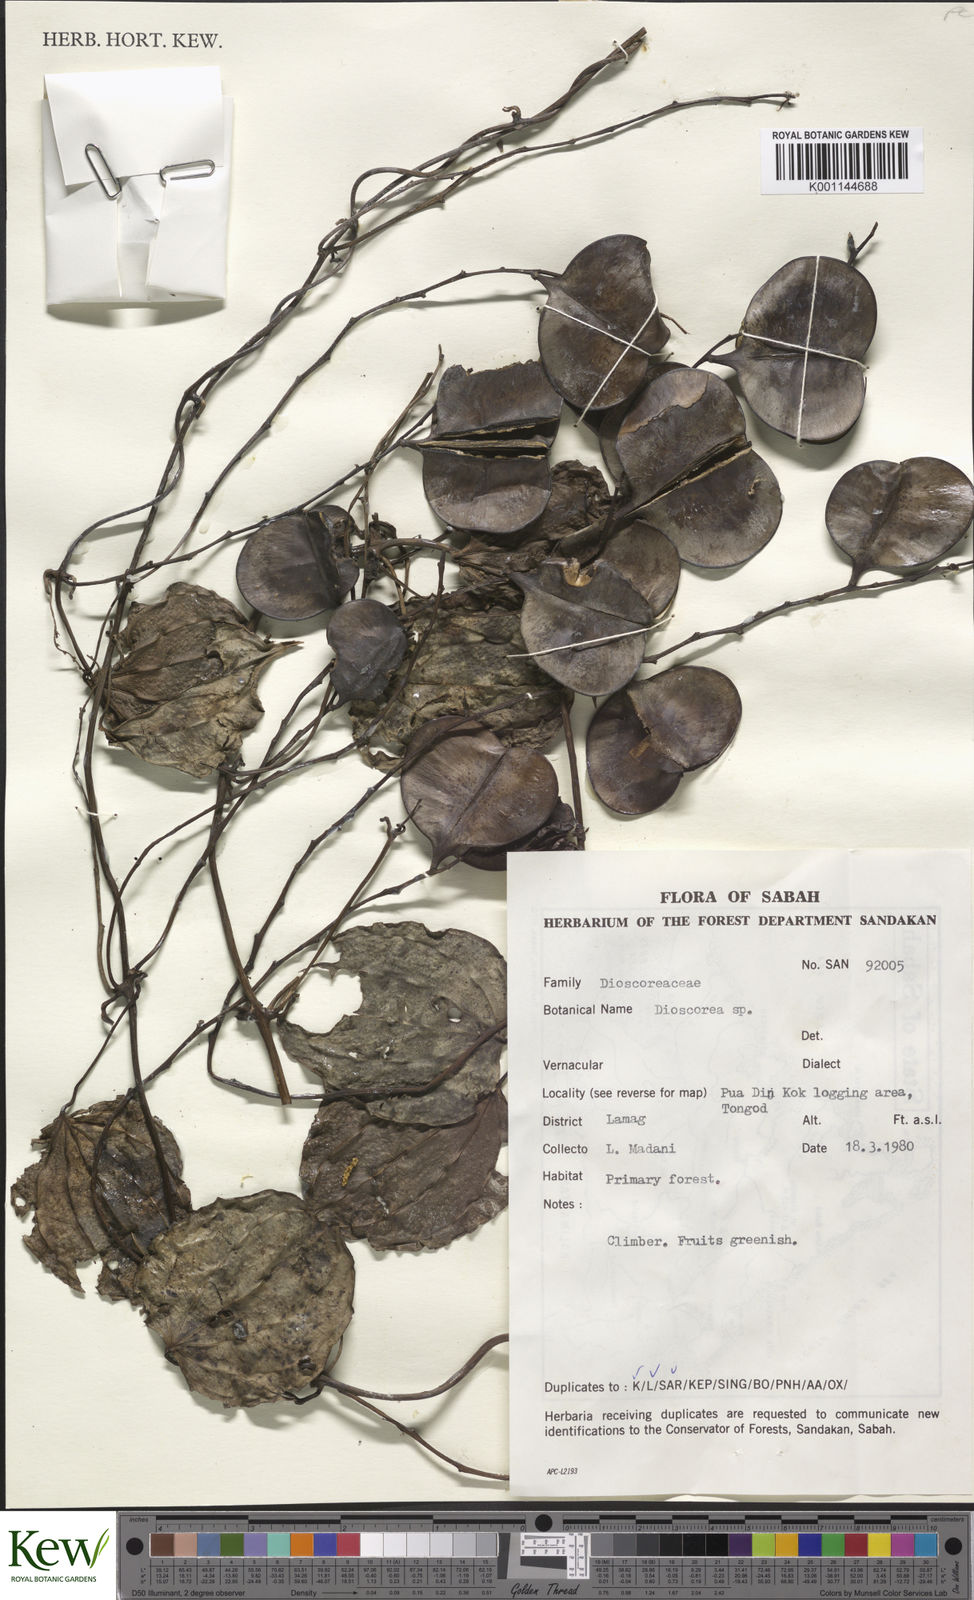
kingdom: Plantae
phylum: Tracheophyta
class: Liliopsida
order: Dioscoreales
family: Dioscoreaceae
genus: Dioscorea
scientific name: Dioscorea
